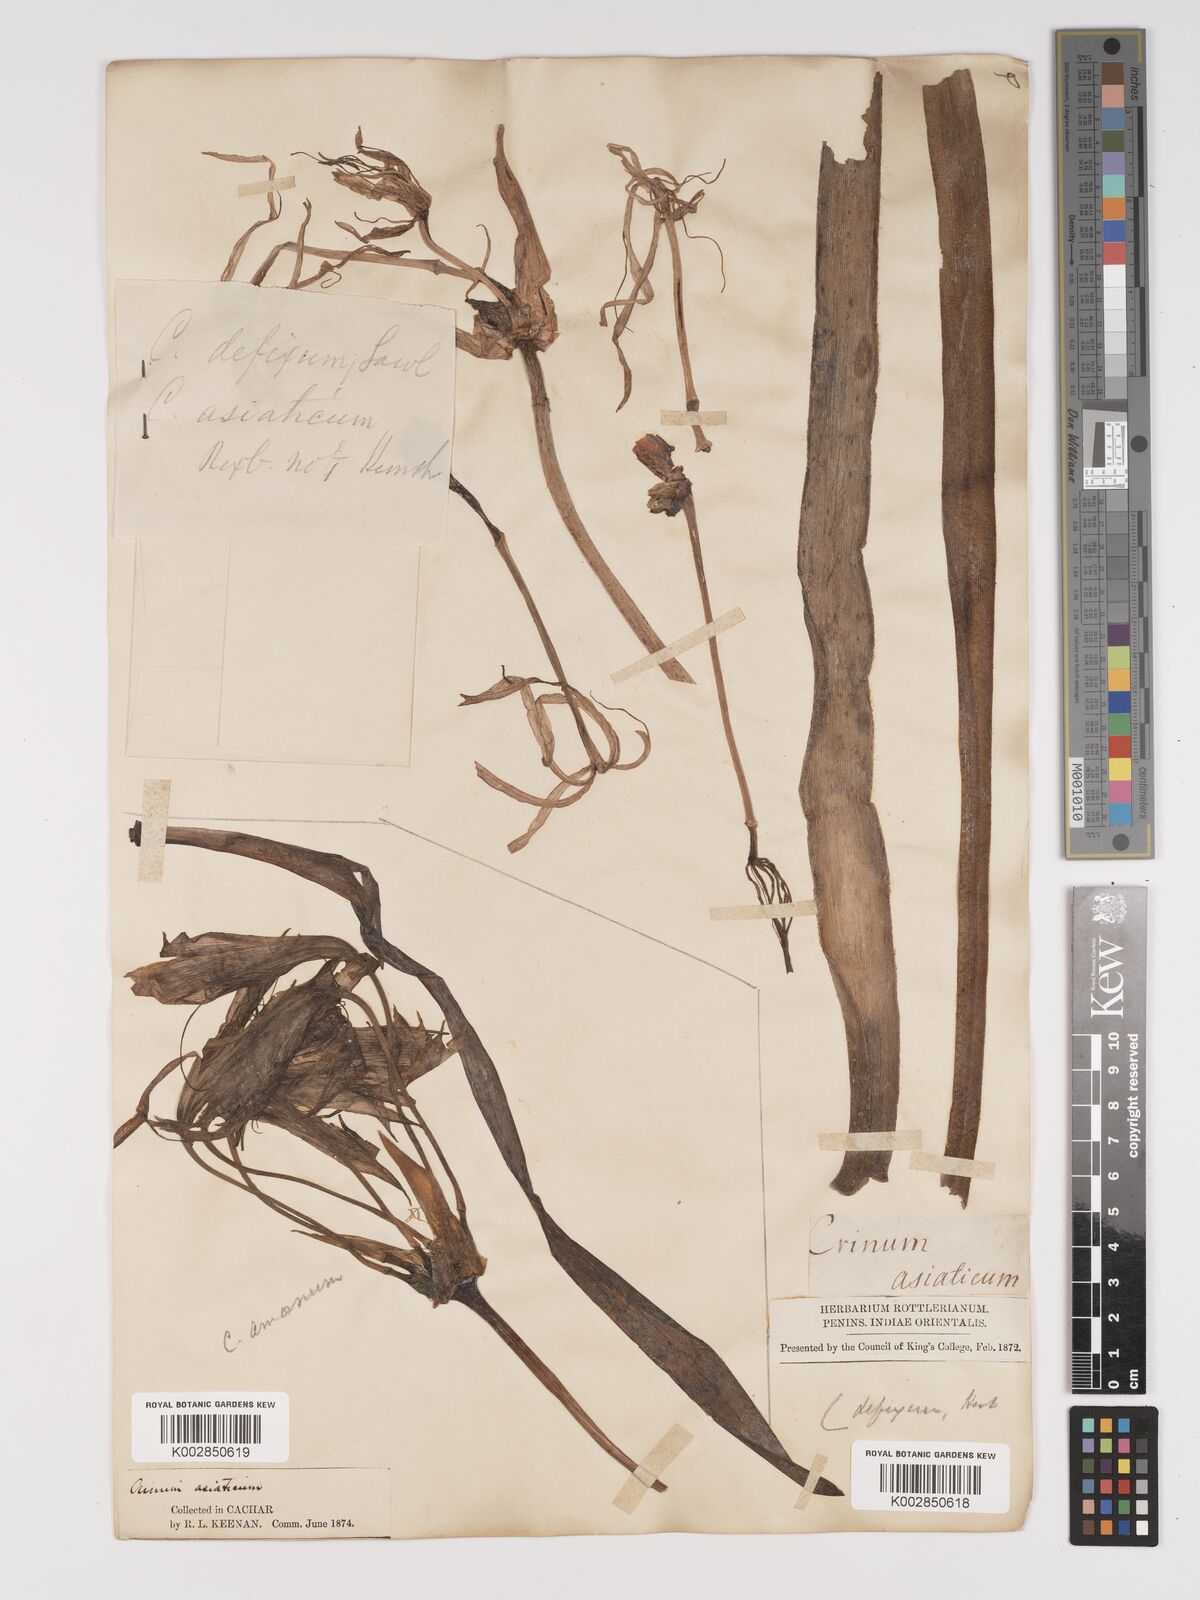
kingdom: Plantae
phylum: Tracheophyta
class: Liliopsida
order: Asparagales
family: Amaryllidaceae
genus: Crinum
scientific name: Crinum defixum
